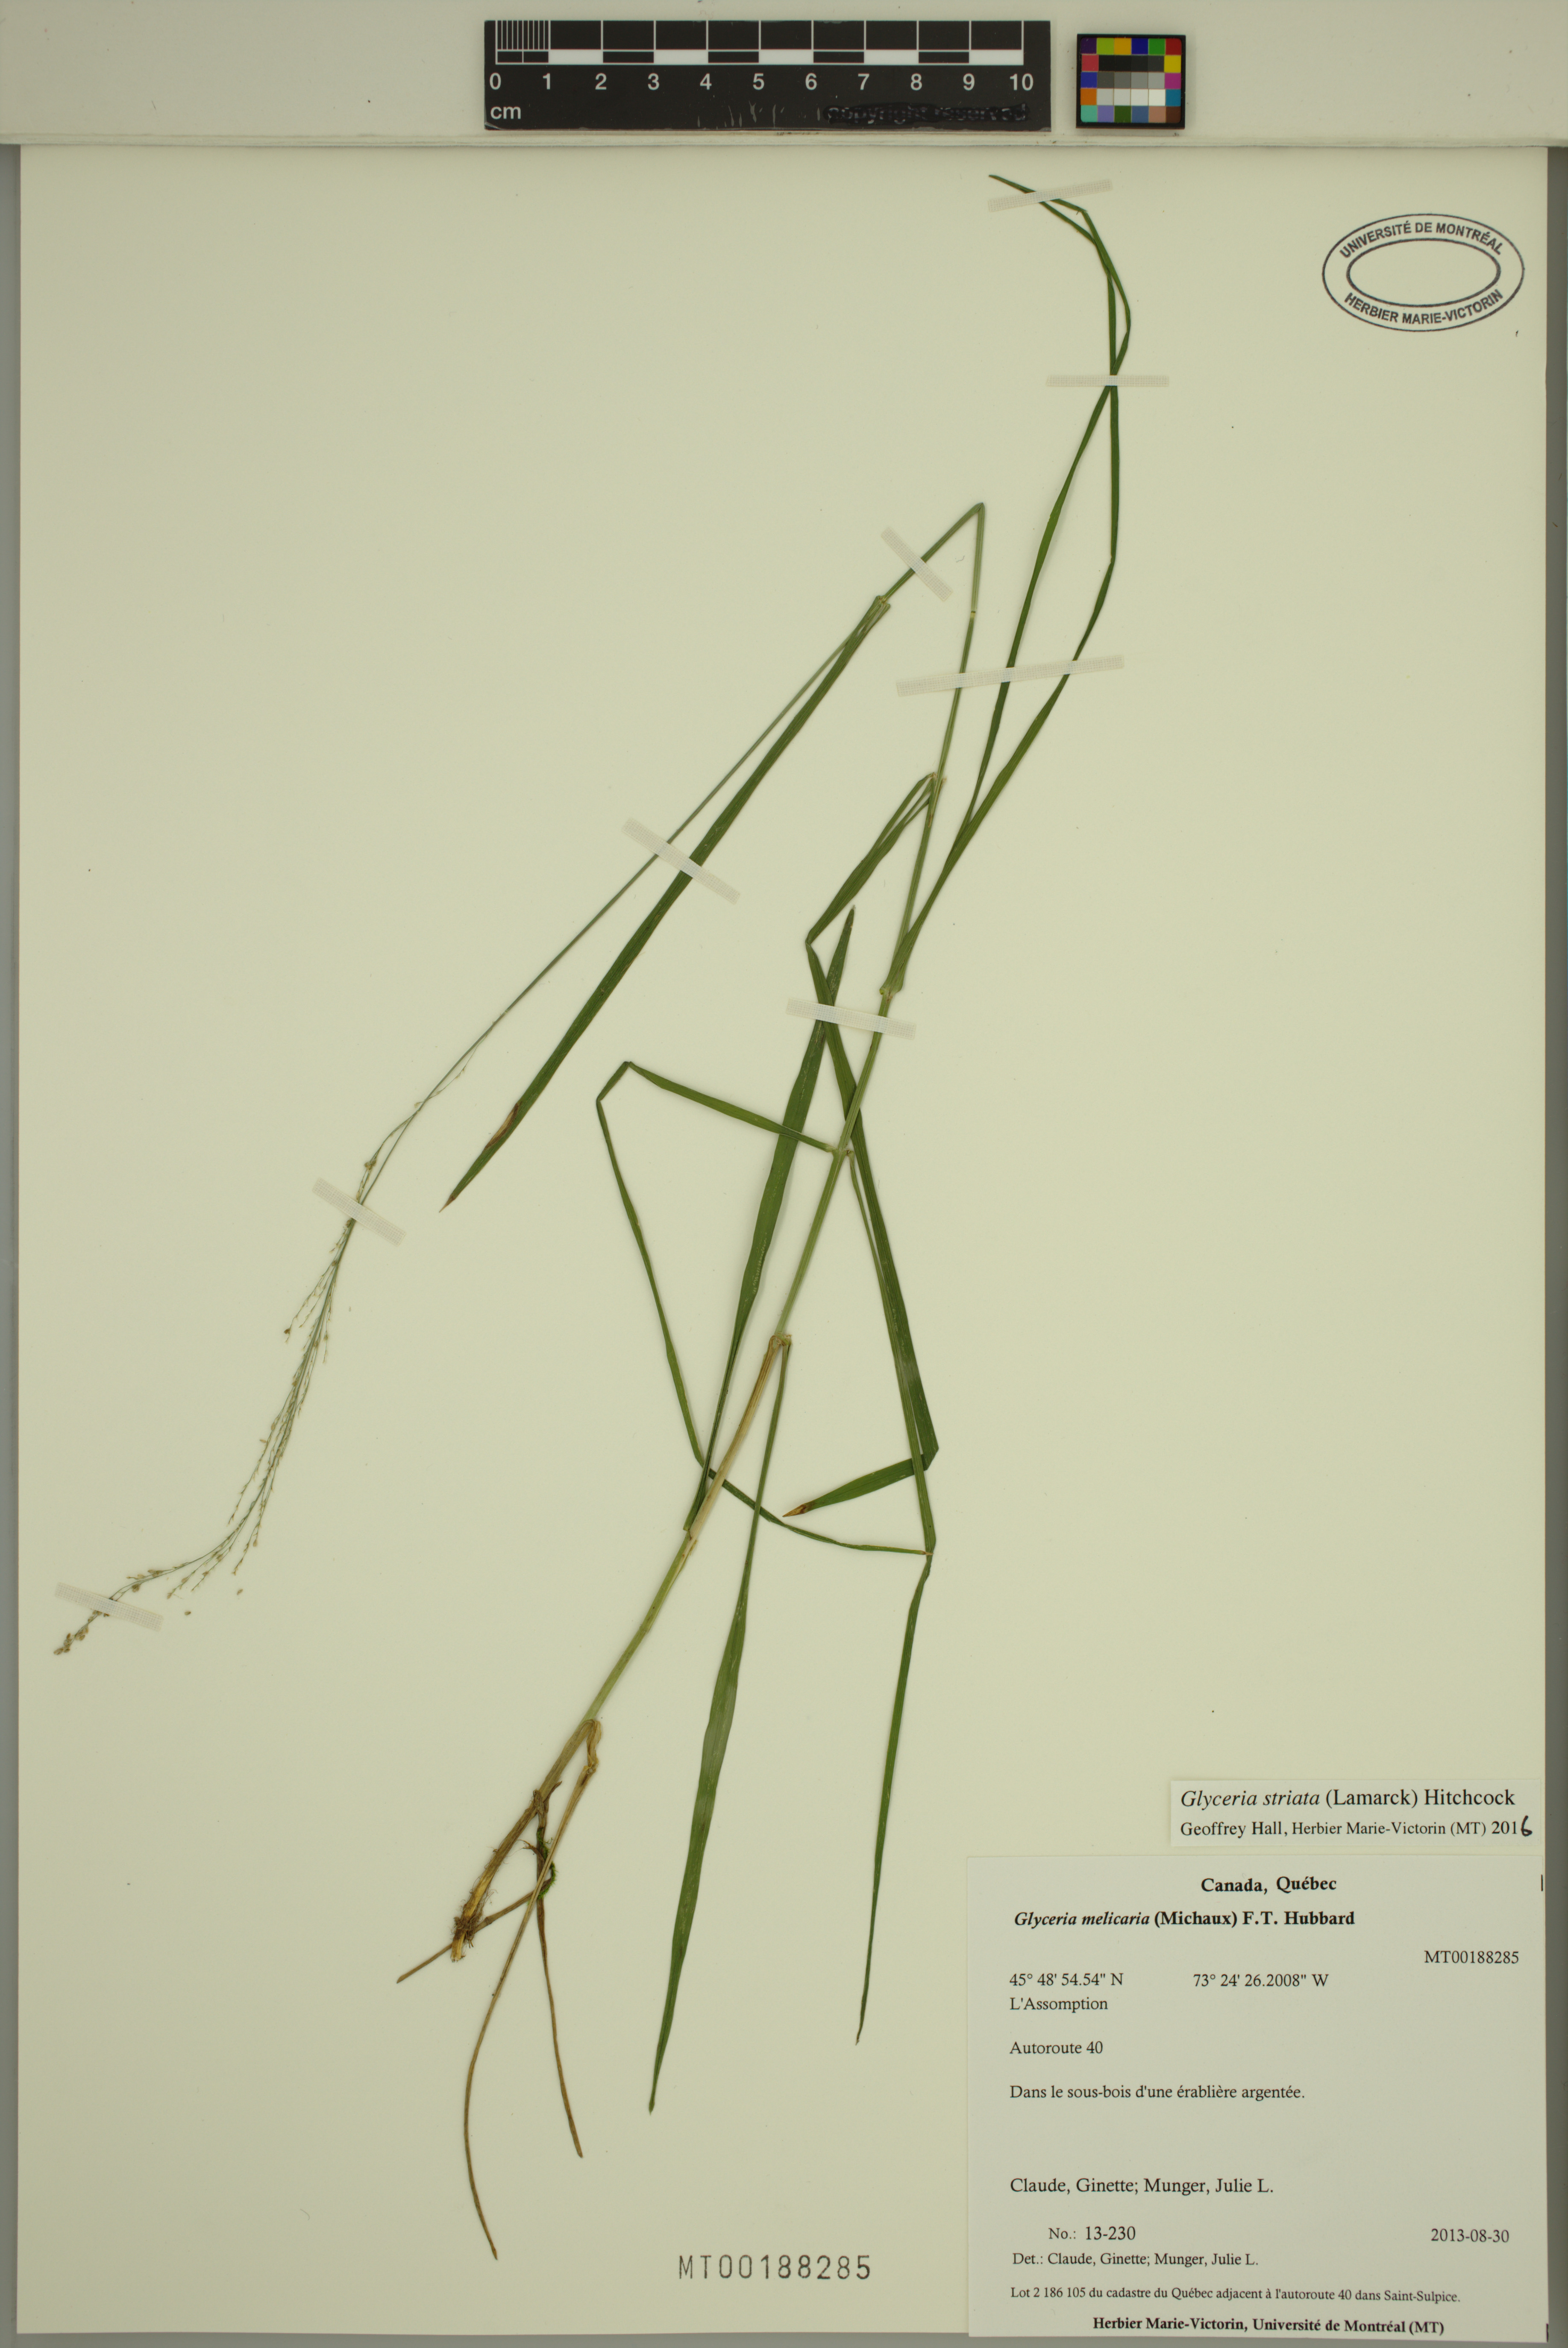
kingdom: Plantae
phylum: Tracheophyta
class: Liliopsida
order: Poales
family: Poaceae
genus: Glyceria
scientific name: Glyceria striata
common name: Fowl manna grass
